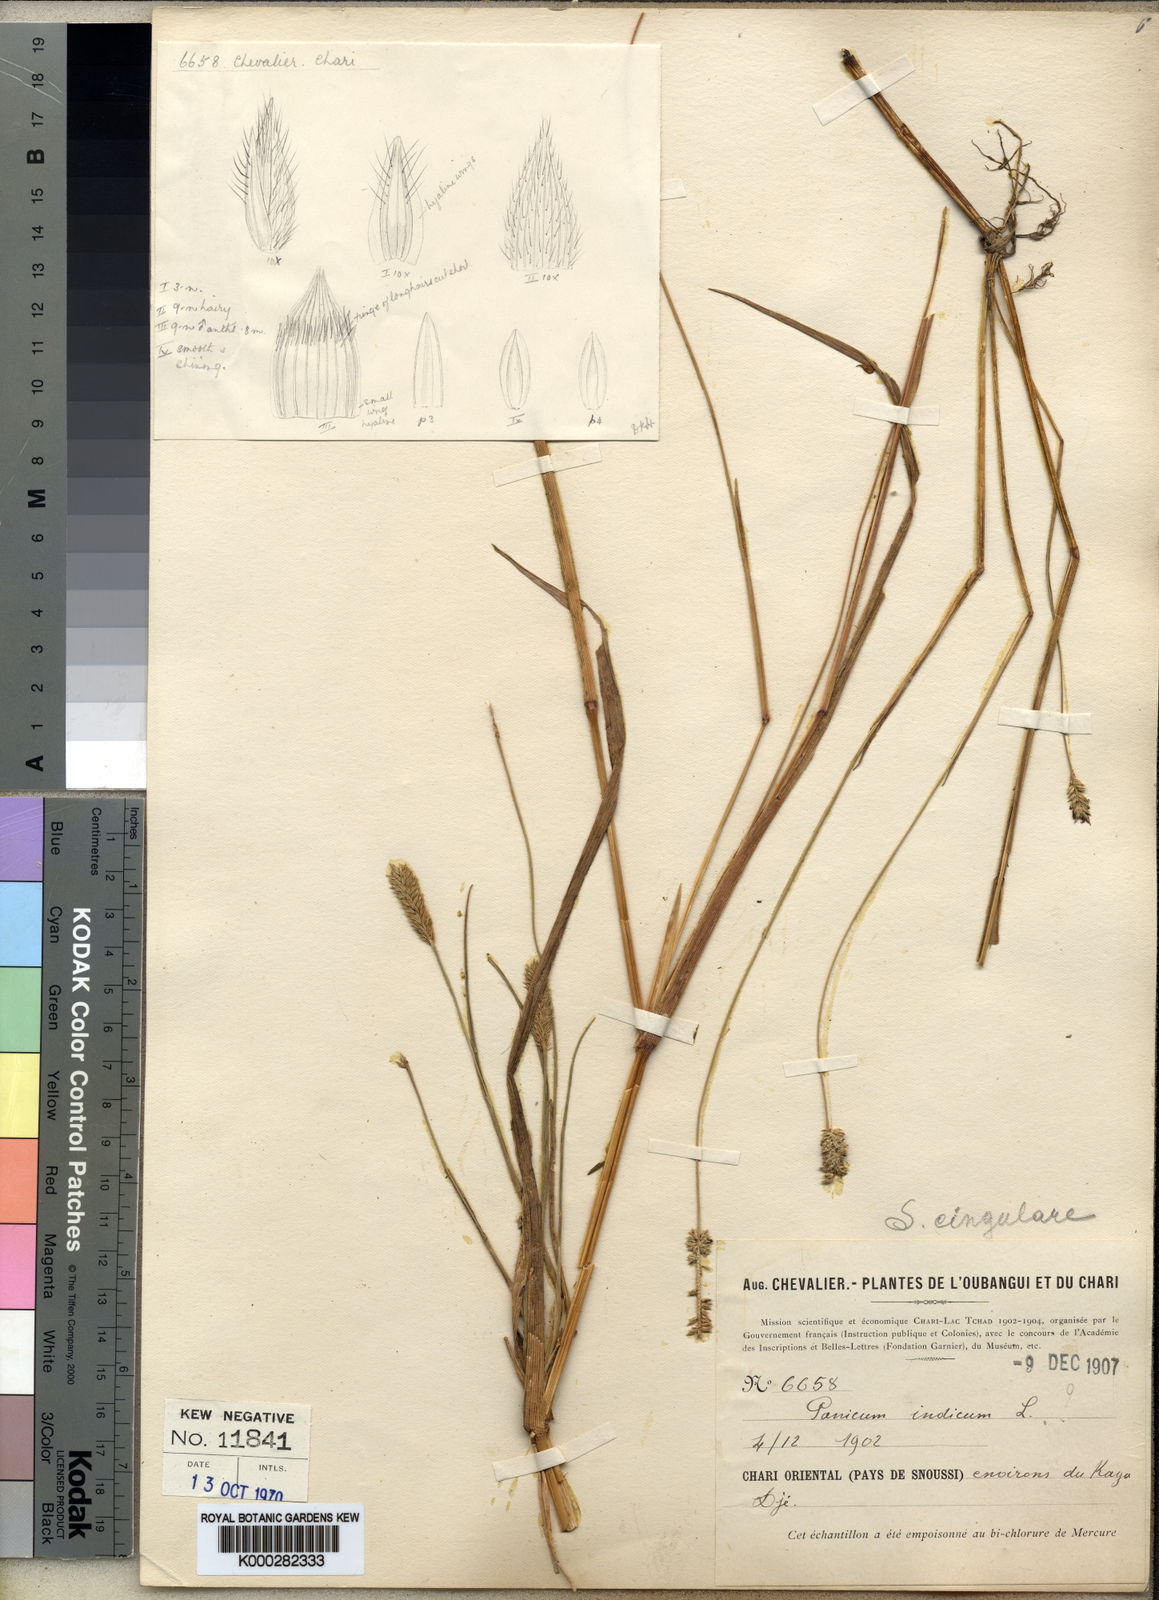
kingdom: Plantae
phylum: Tracheophyta
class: Liliopsida
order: Poales
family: Poaceae
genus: Sacciolepis
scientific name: Sacciolepis cingularis
